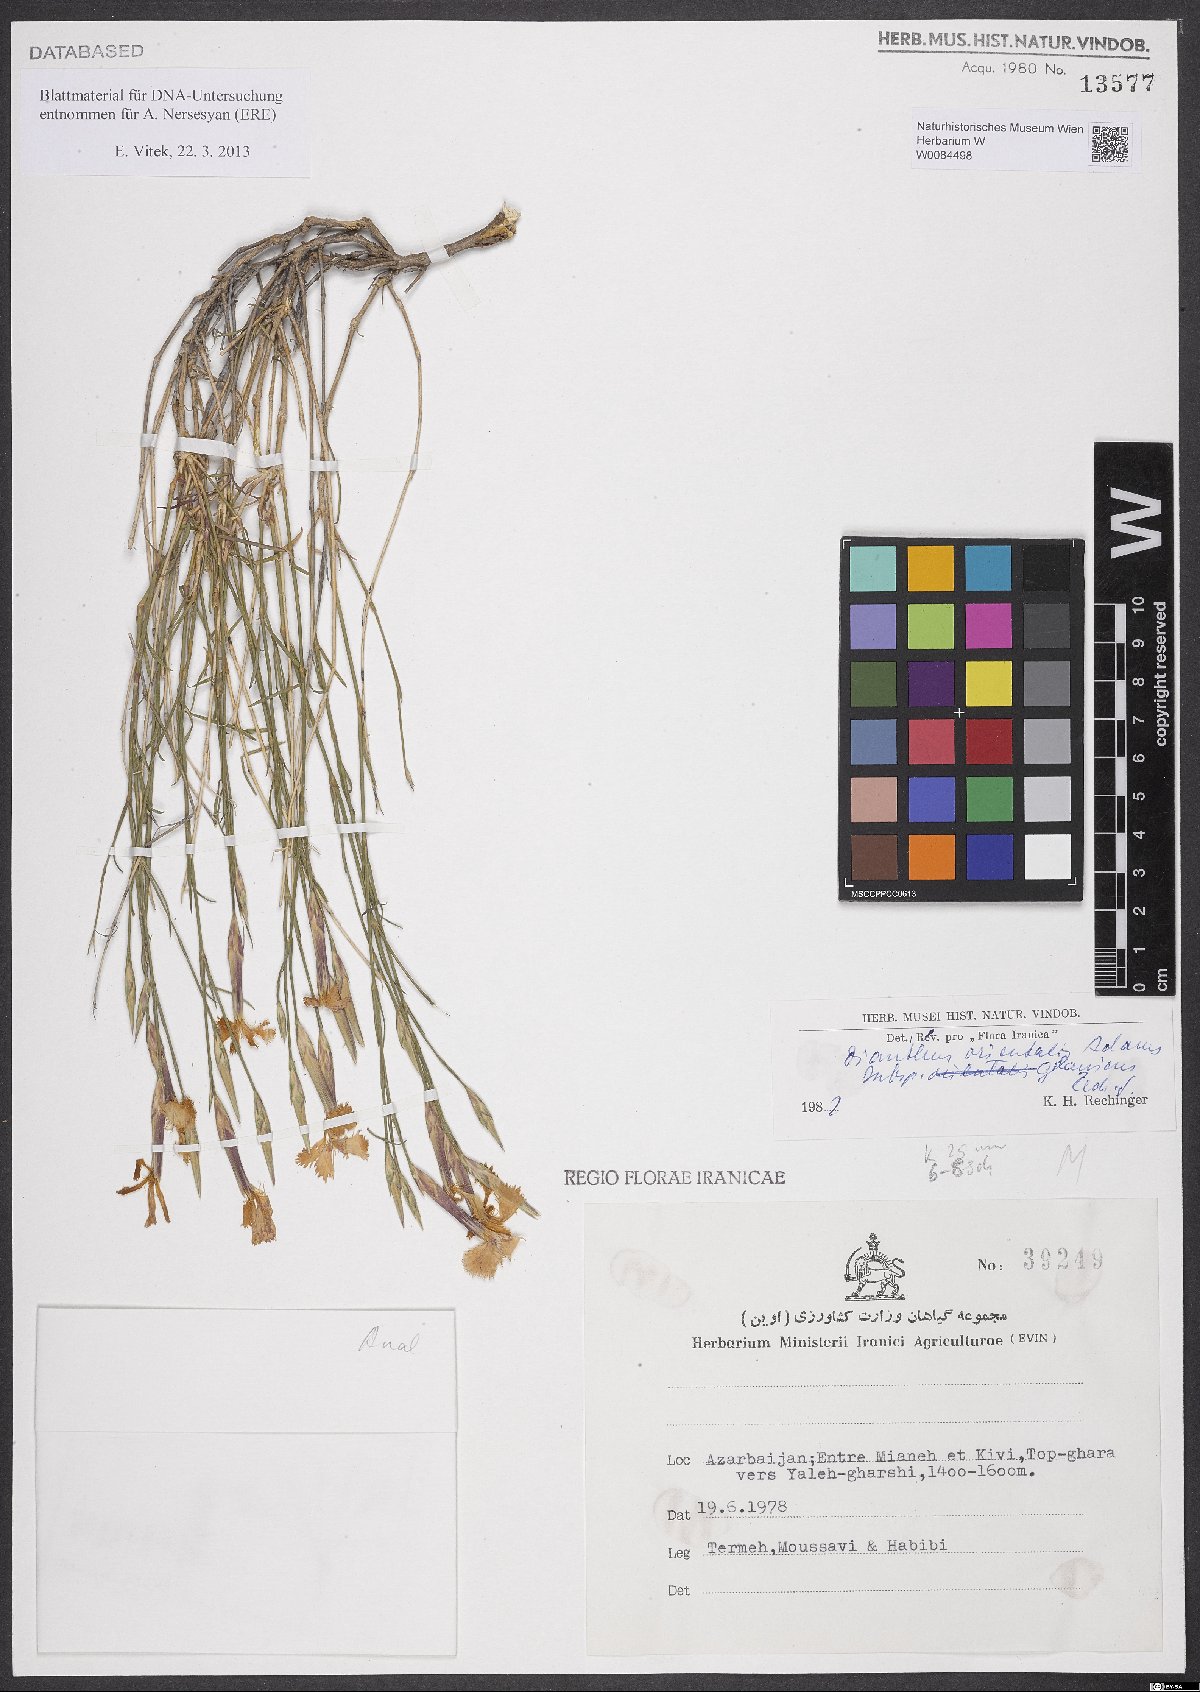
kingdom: Plantae
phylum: Tracheophyta
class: Magnoliopsida
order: Caryophyllales
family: Caryophyllaceae
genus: Dianthus
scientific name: Dianthus orientalis
